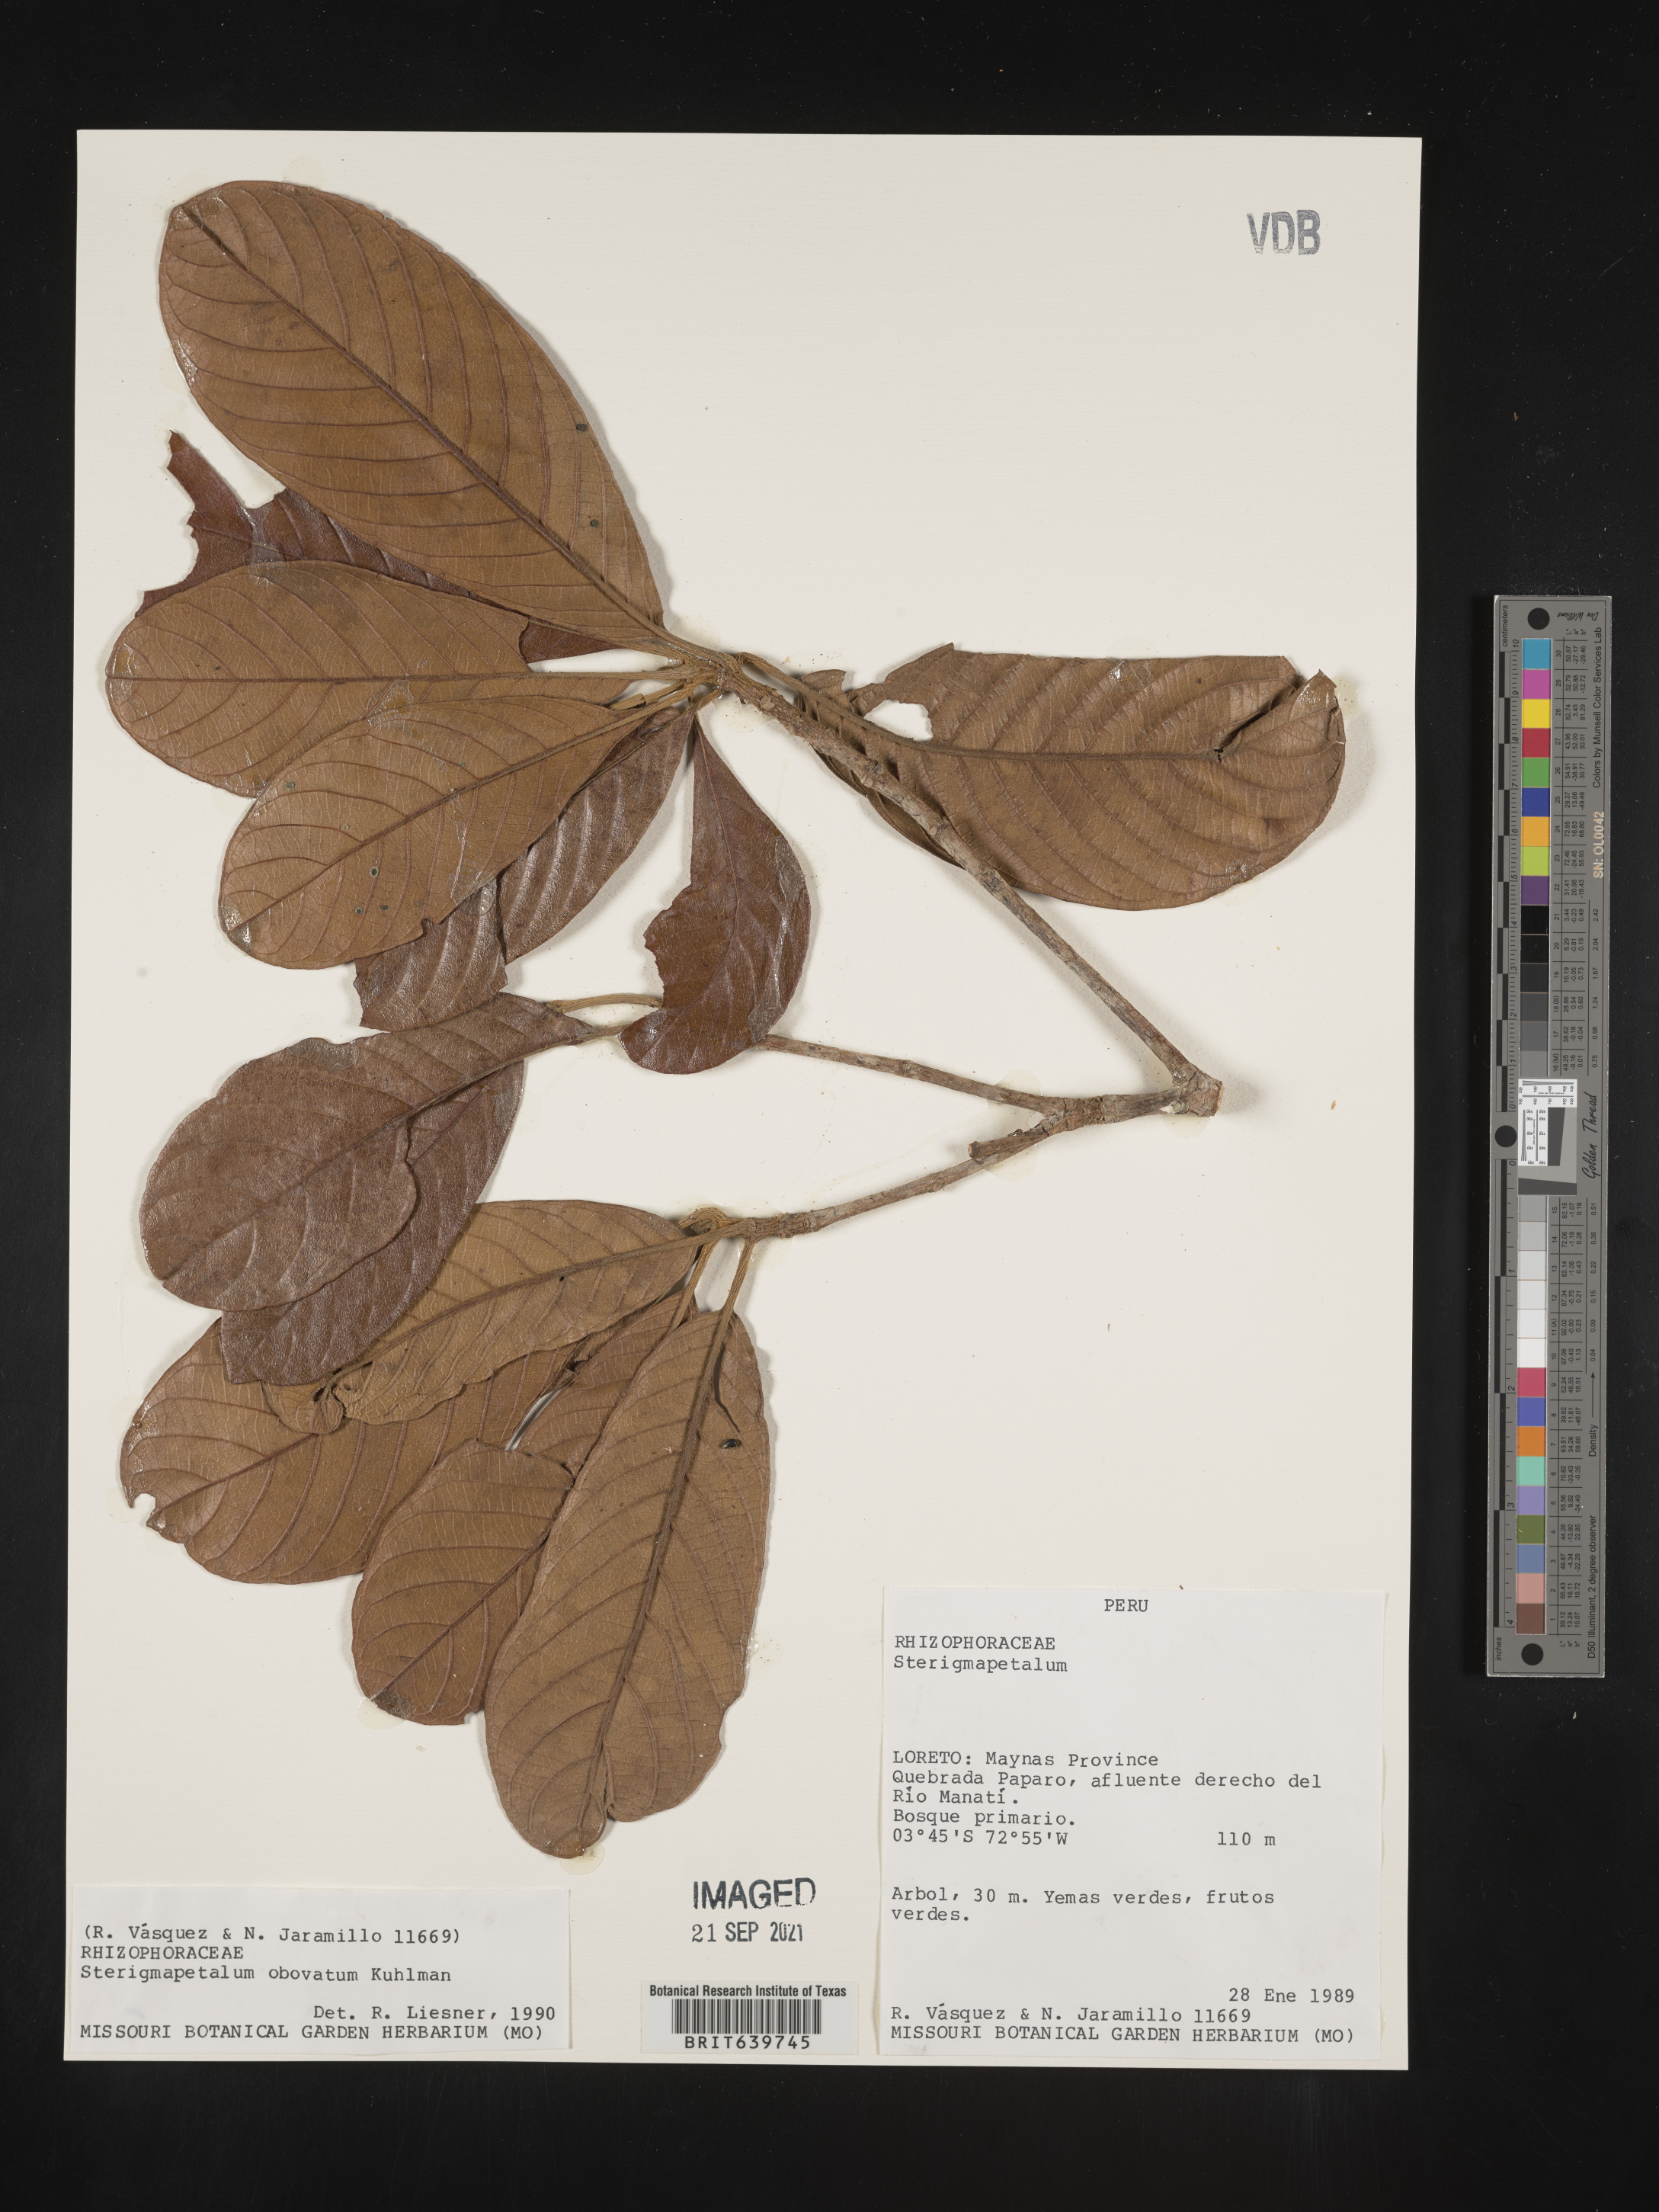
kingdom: Plantae
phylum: Tracheophyta
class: Magnoliopsida
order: Malpighiales
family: Rhizophoraceae
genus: Sterigmapetalum
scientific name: Sterigmapetalum
